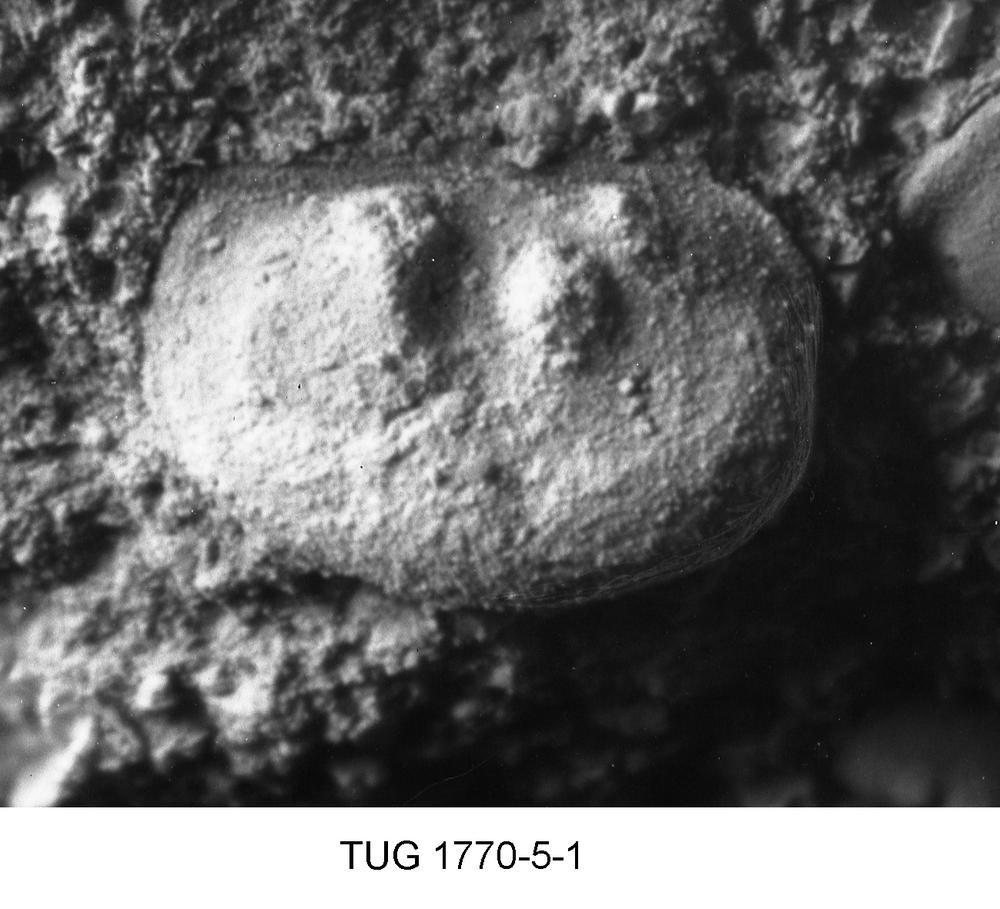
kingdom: Animalia
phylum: Arthropoda
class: Ostracoda
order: Palaeocopida
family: Drepanellidae
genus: Drepanella
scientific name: Drepanella
